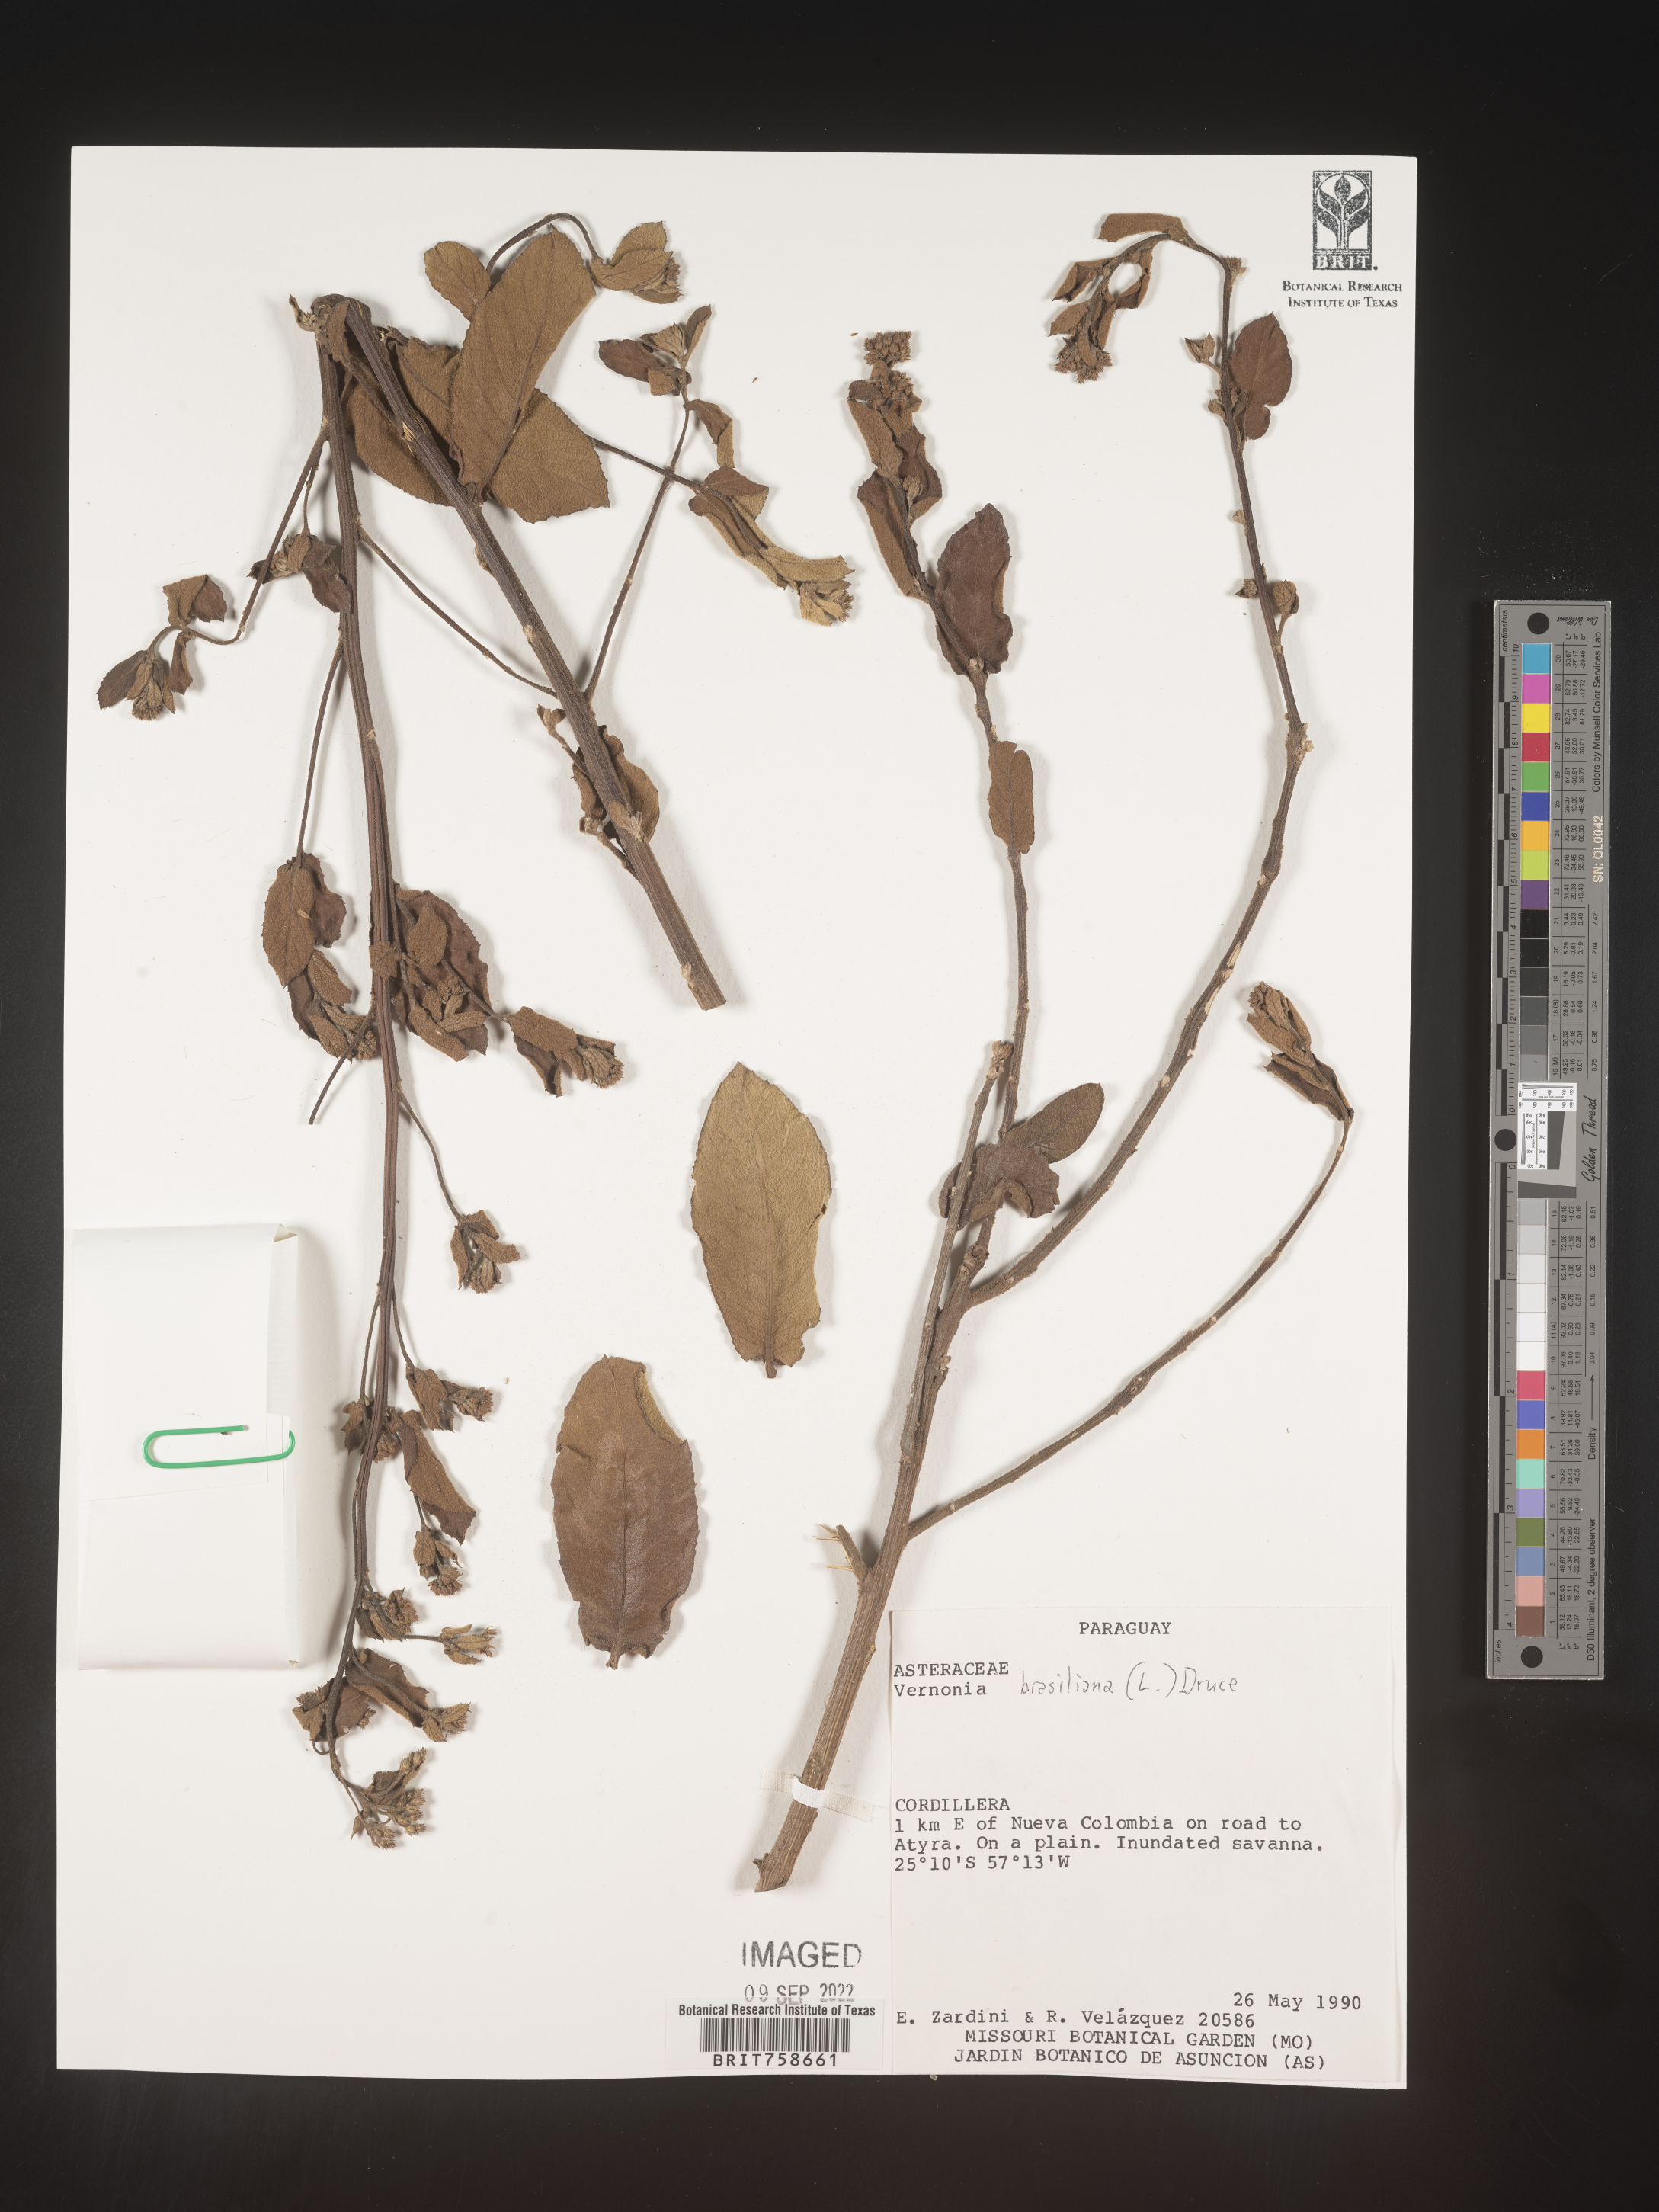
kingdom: Plantae
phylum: Tracheophyta
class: Magnoliopsida
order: Asterales
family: Asteraceae
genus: Vernonia
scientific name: Vernonia
